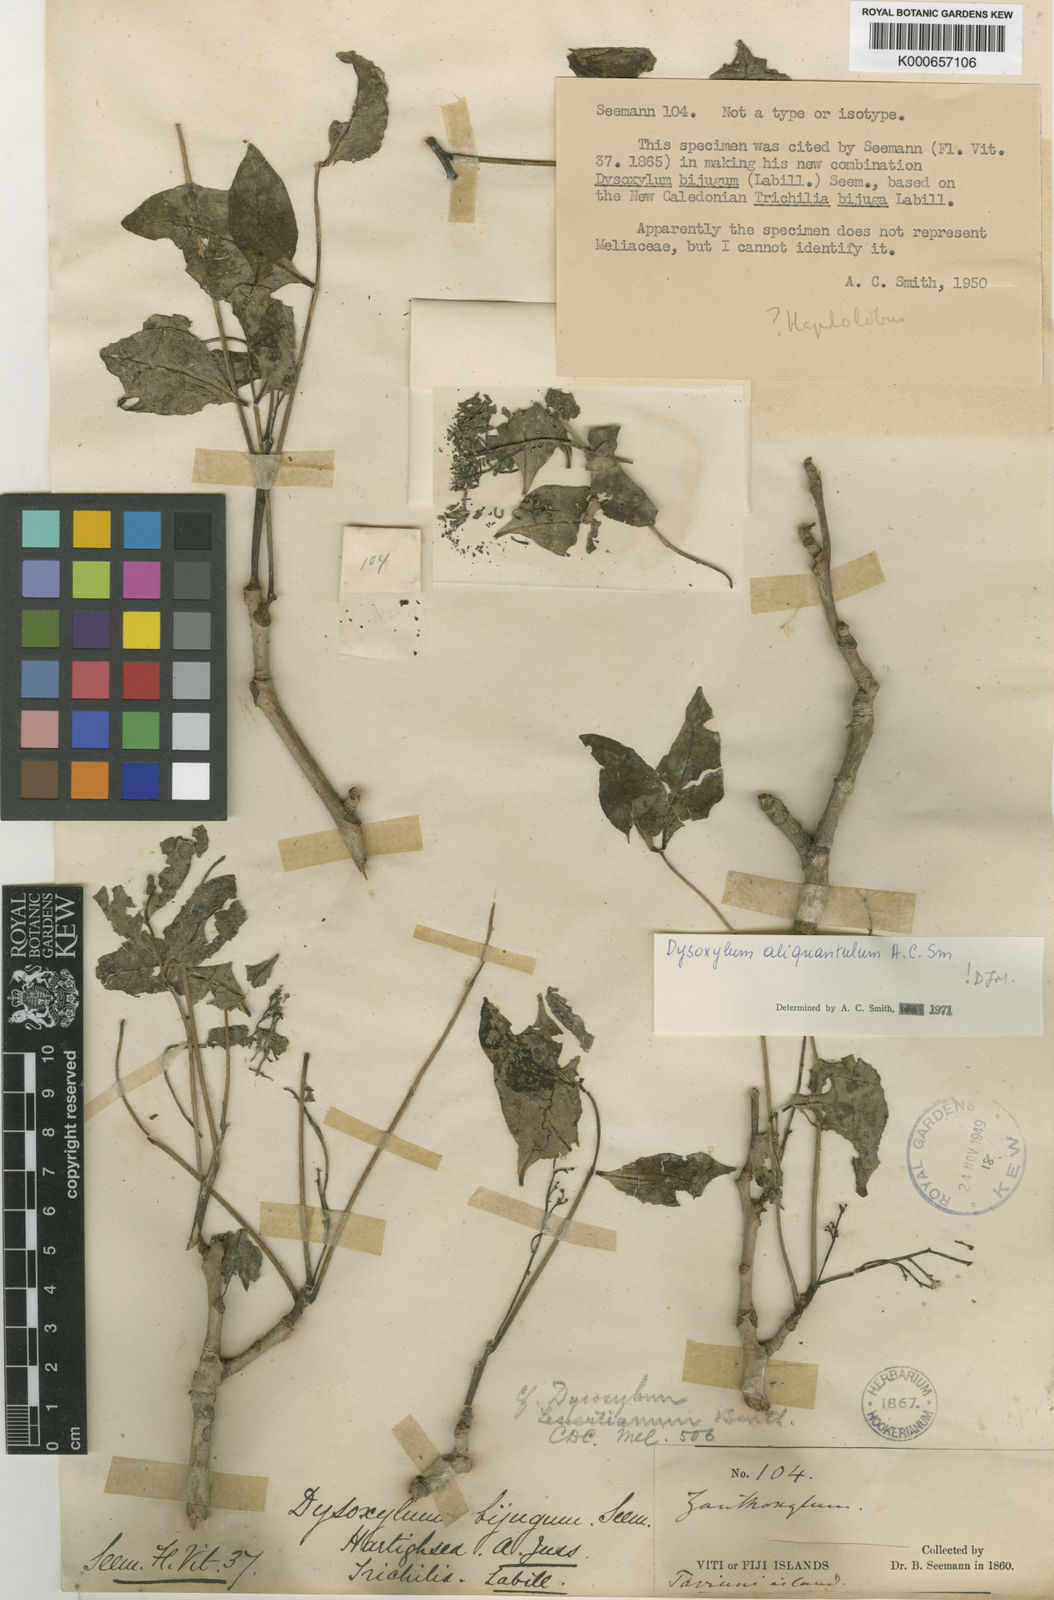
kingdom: Plantae
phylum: Tracheophyta
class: Magnoliopsida
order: Sapindales
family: Meliaceae
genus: Didymocheton
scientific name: Didymocheton aliquantulus
